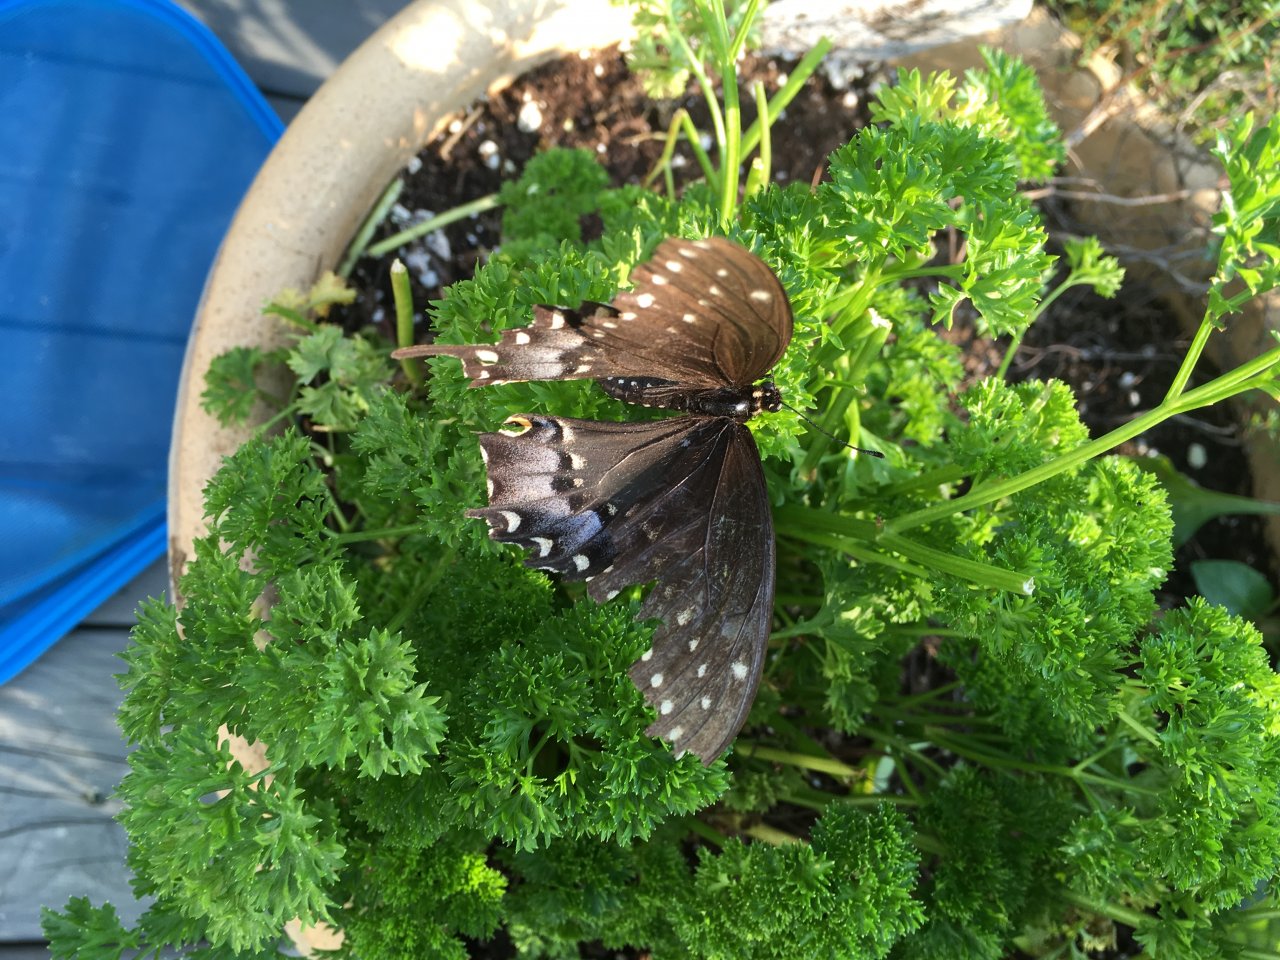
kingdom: Animalia
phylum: Arthropoda
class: Insecta
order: Lepidoptera
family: Papilionidae
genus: Papilio
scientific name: Papilio polyxenes
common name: Black Swallowtail
